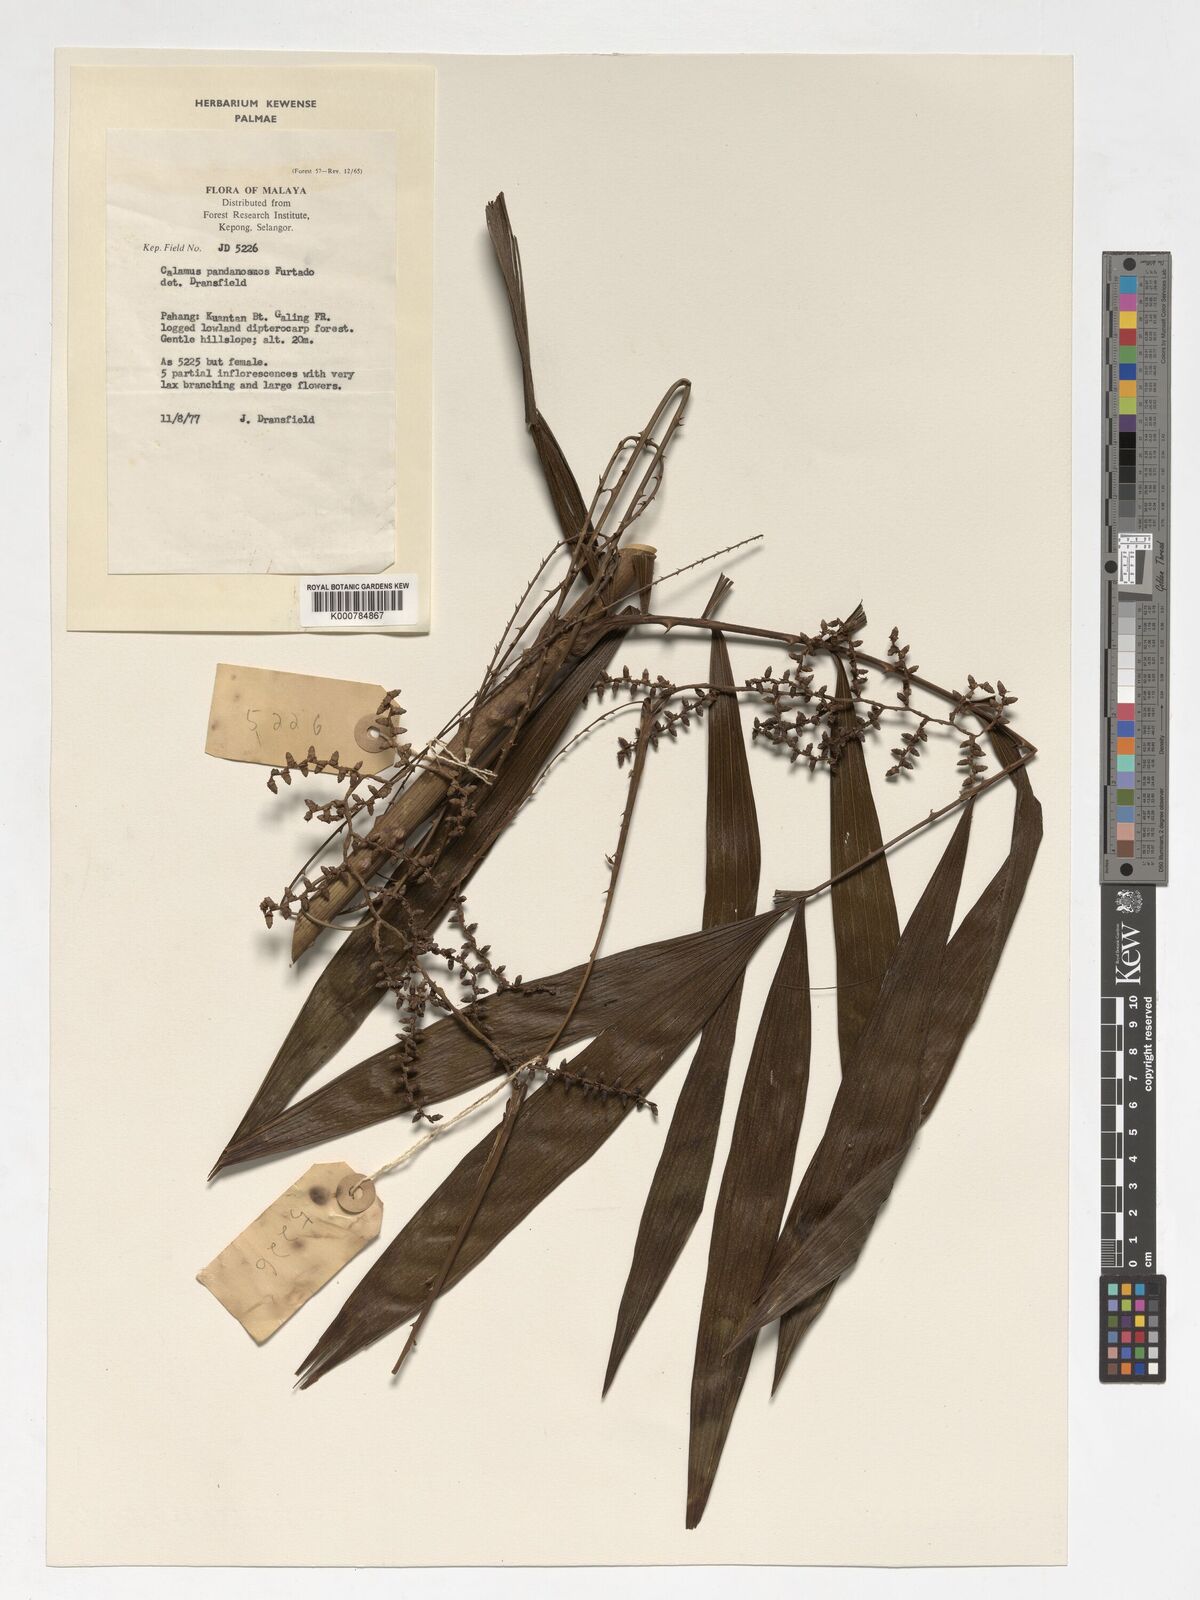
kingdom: Plantae
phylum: Tracheophyta
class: Liliopsida
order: Arecales
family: Arecaceae
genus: Calamus
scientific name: Calamus pandanosmus
